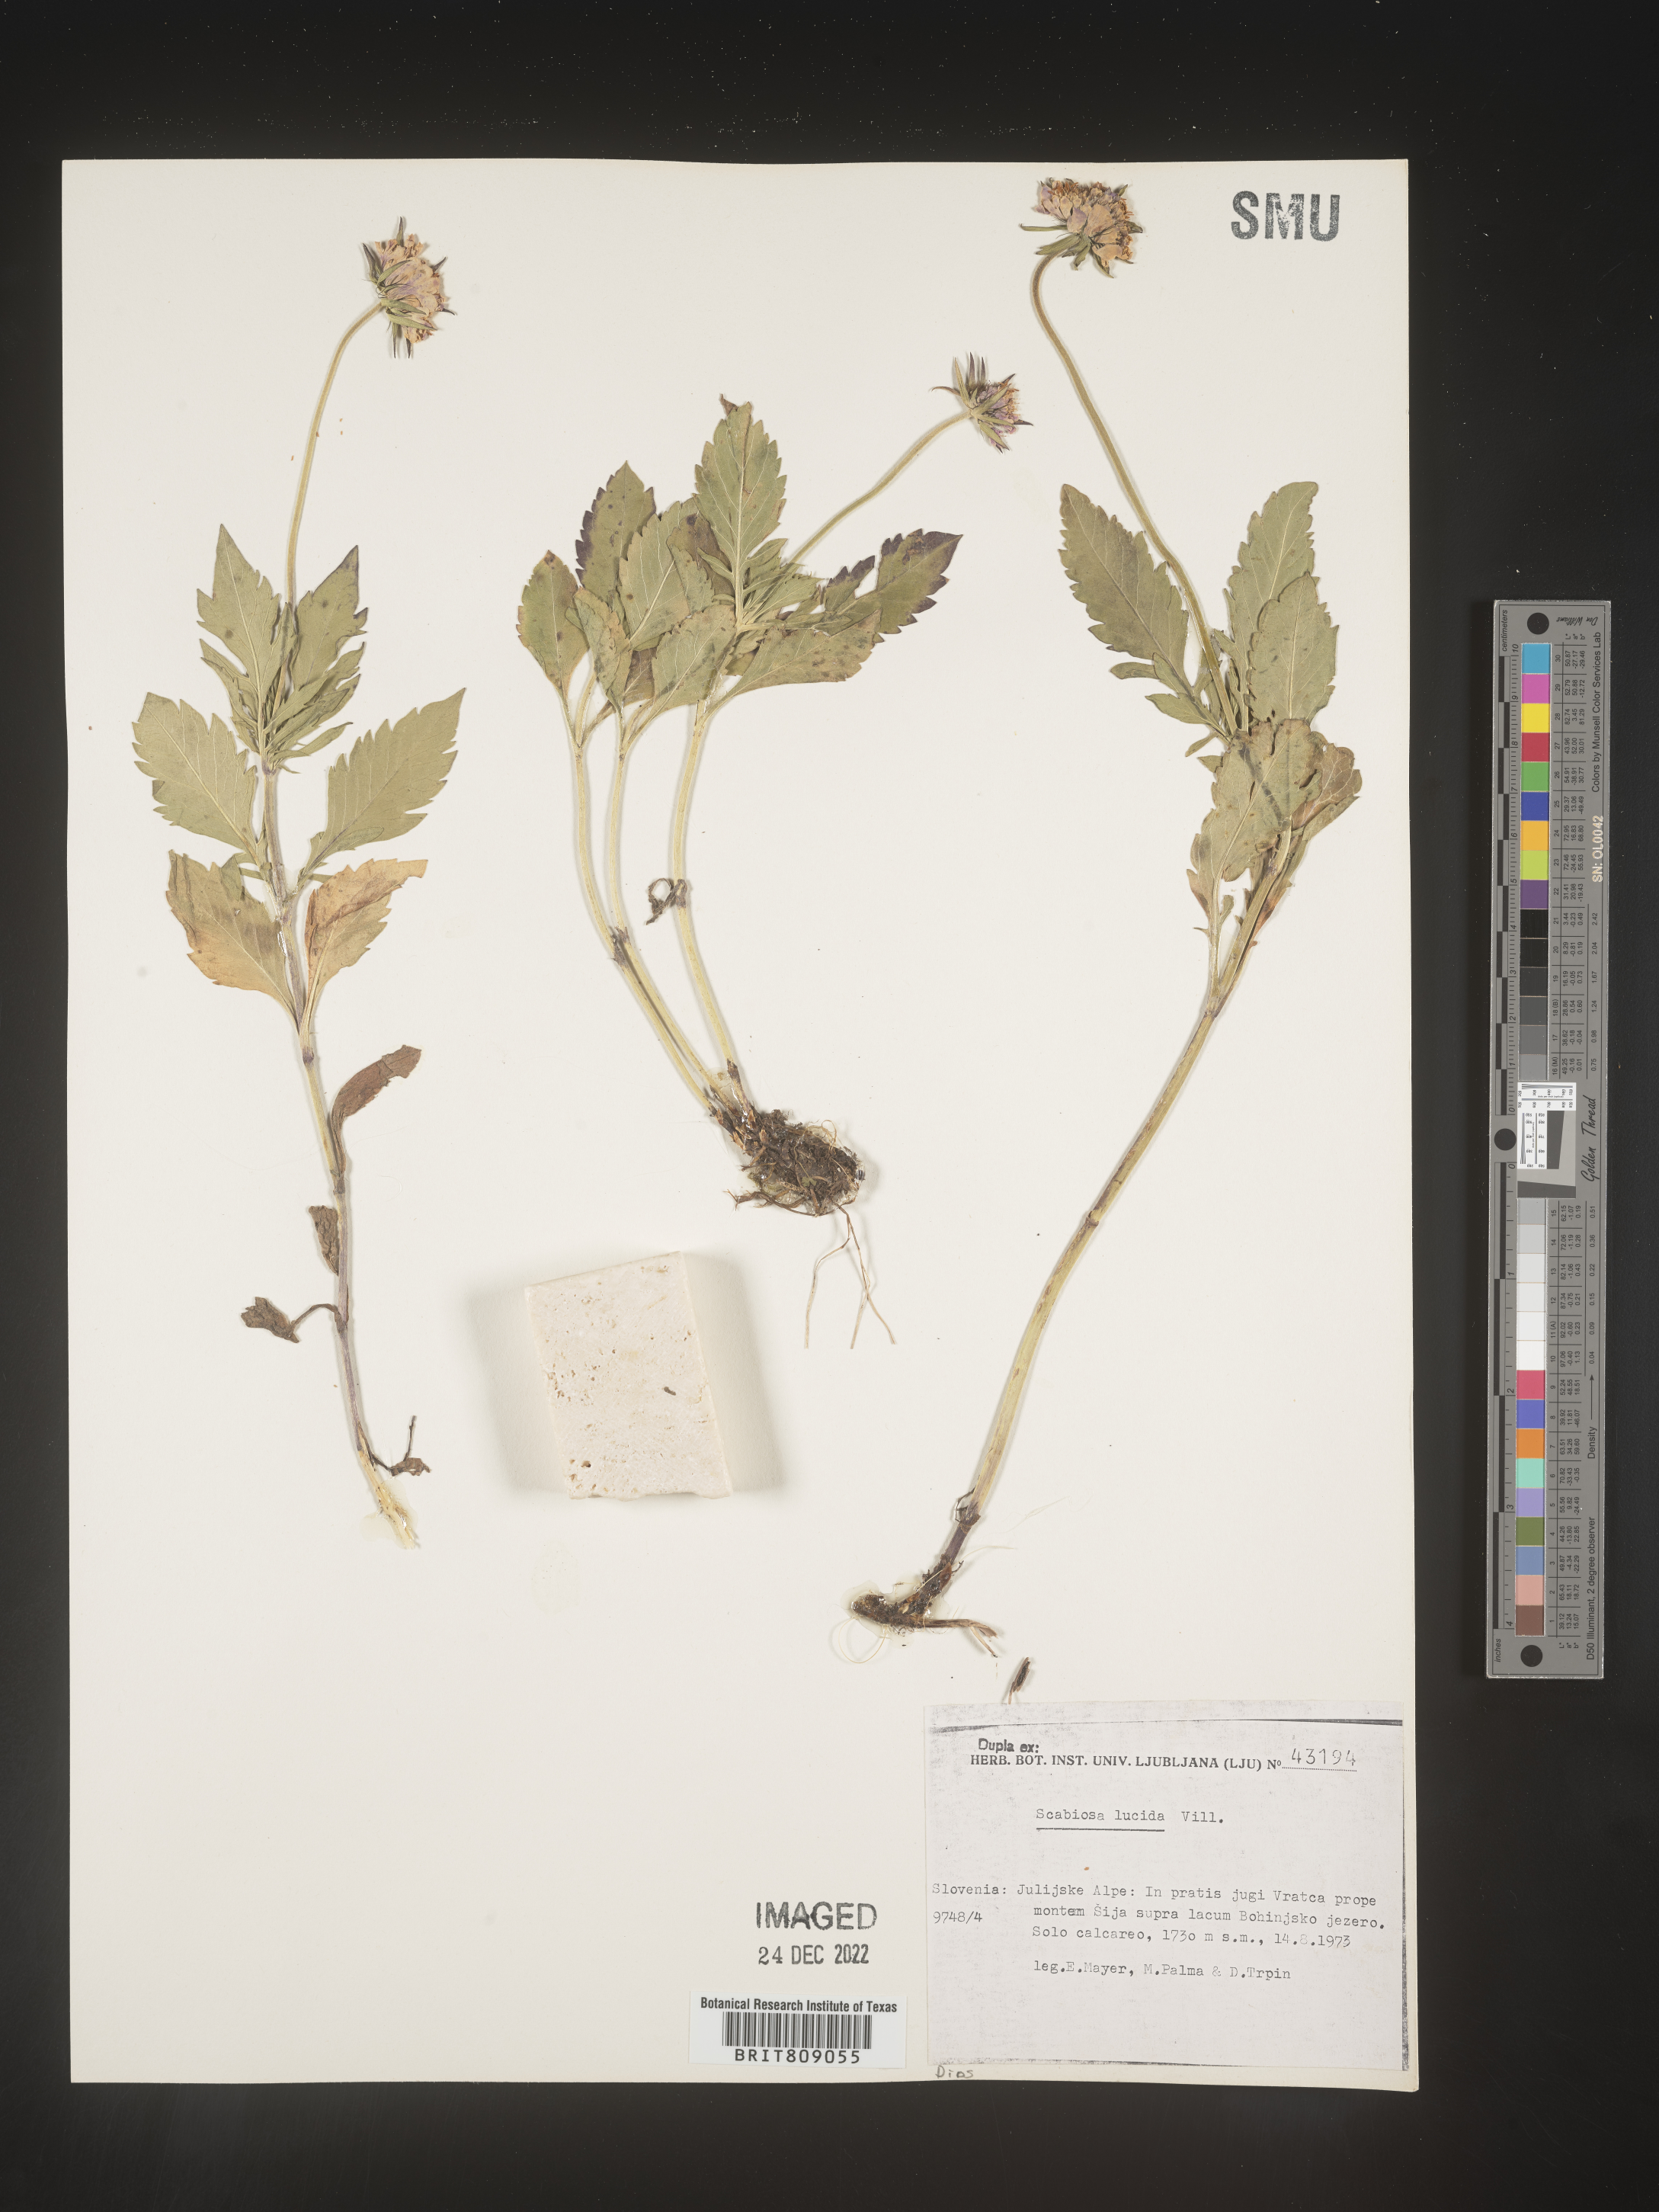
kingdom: Plantae
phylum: Tracheophyta
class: Magnoliopsida
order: Dipsacales
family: Caprifoliaceae
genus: Scabiosa
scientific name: Scabiosa
